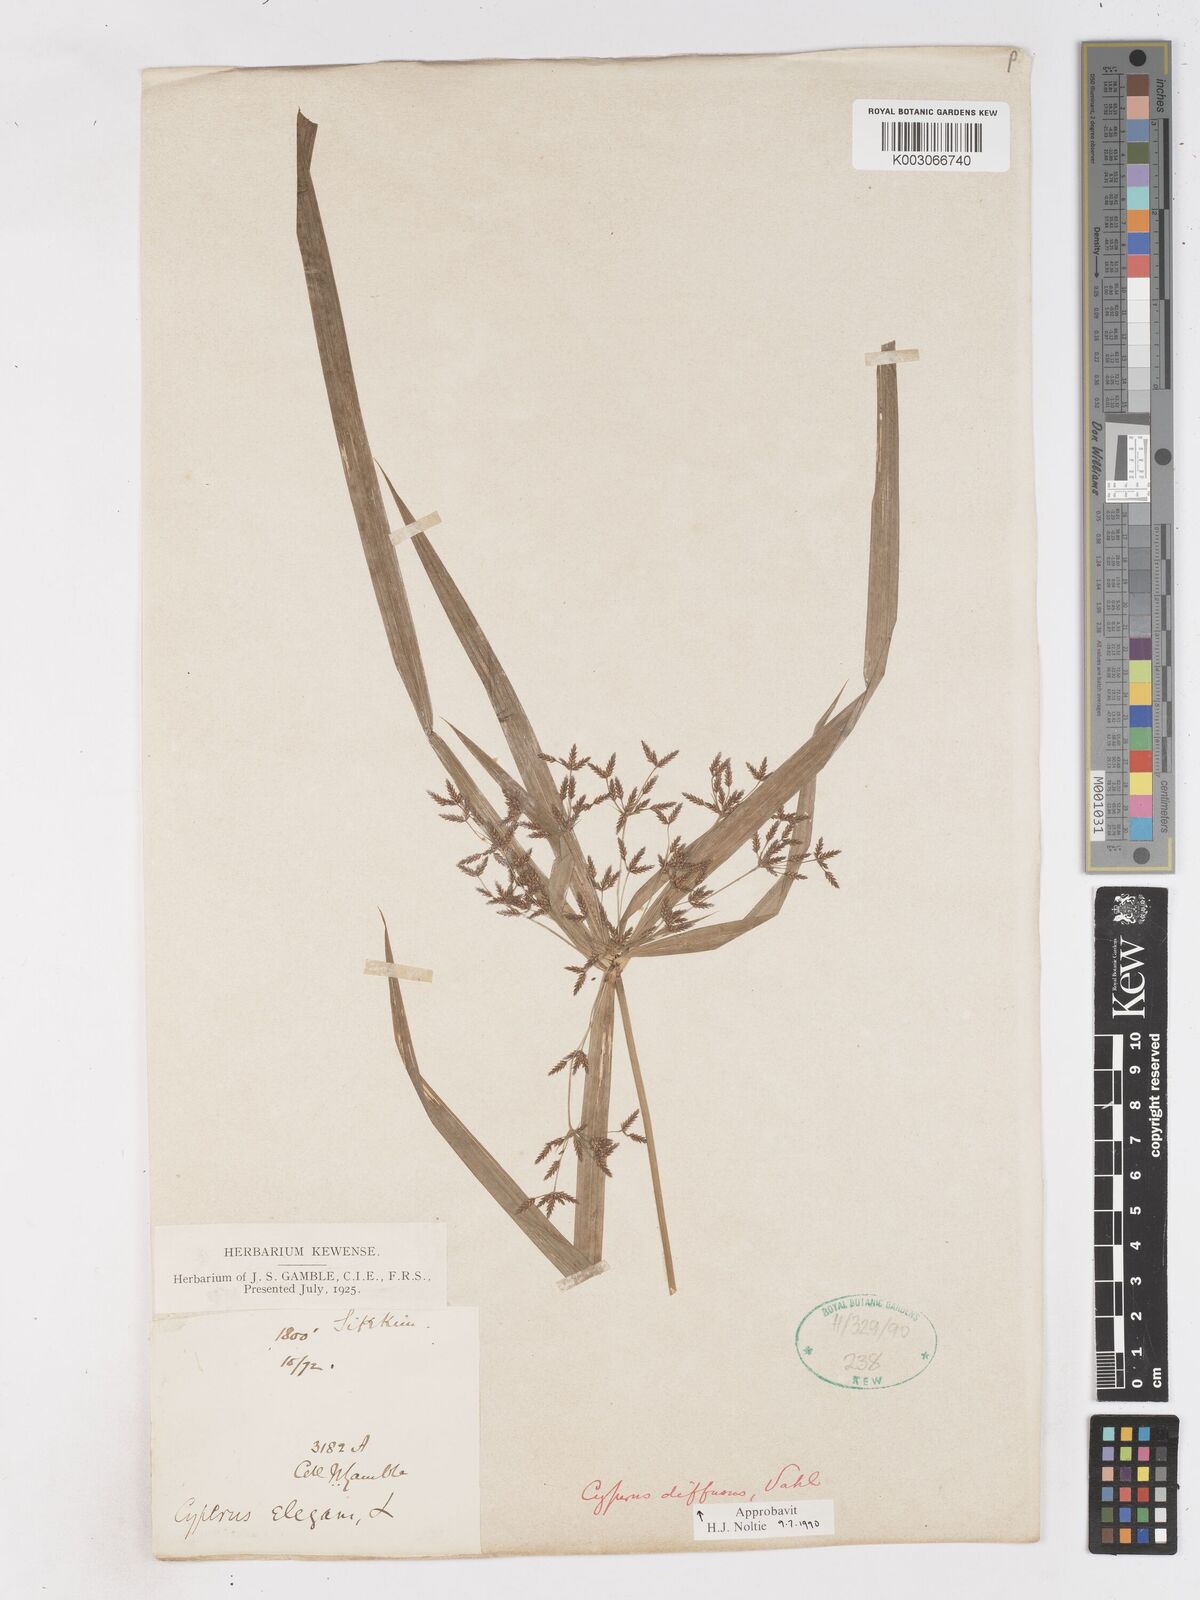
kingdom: Plantae
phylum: Tracheophyta
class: Liliopsida
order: Poales
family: Cyperaceae
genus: Cyperus
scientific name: Cyperus diffusus
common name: Dwarf umbrella grass
